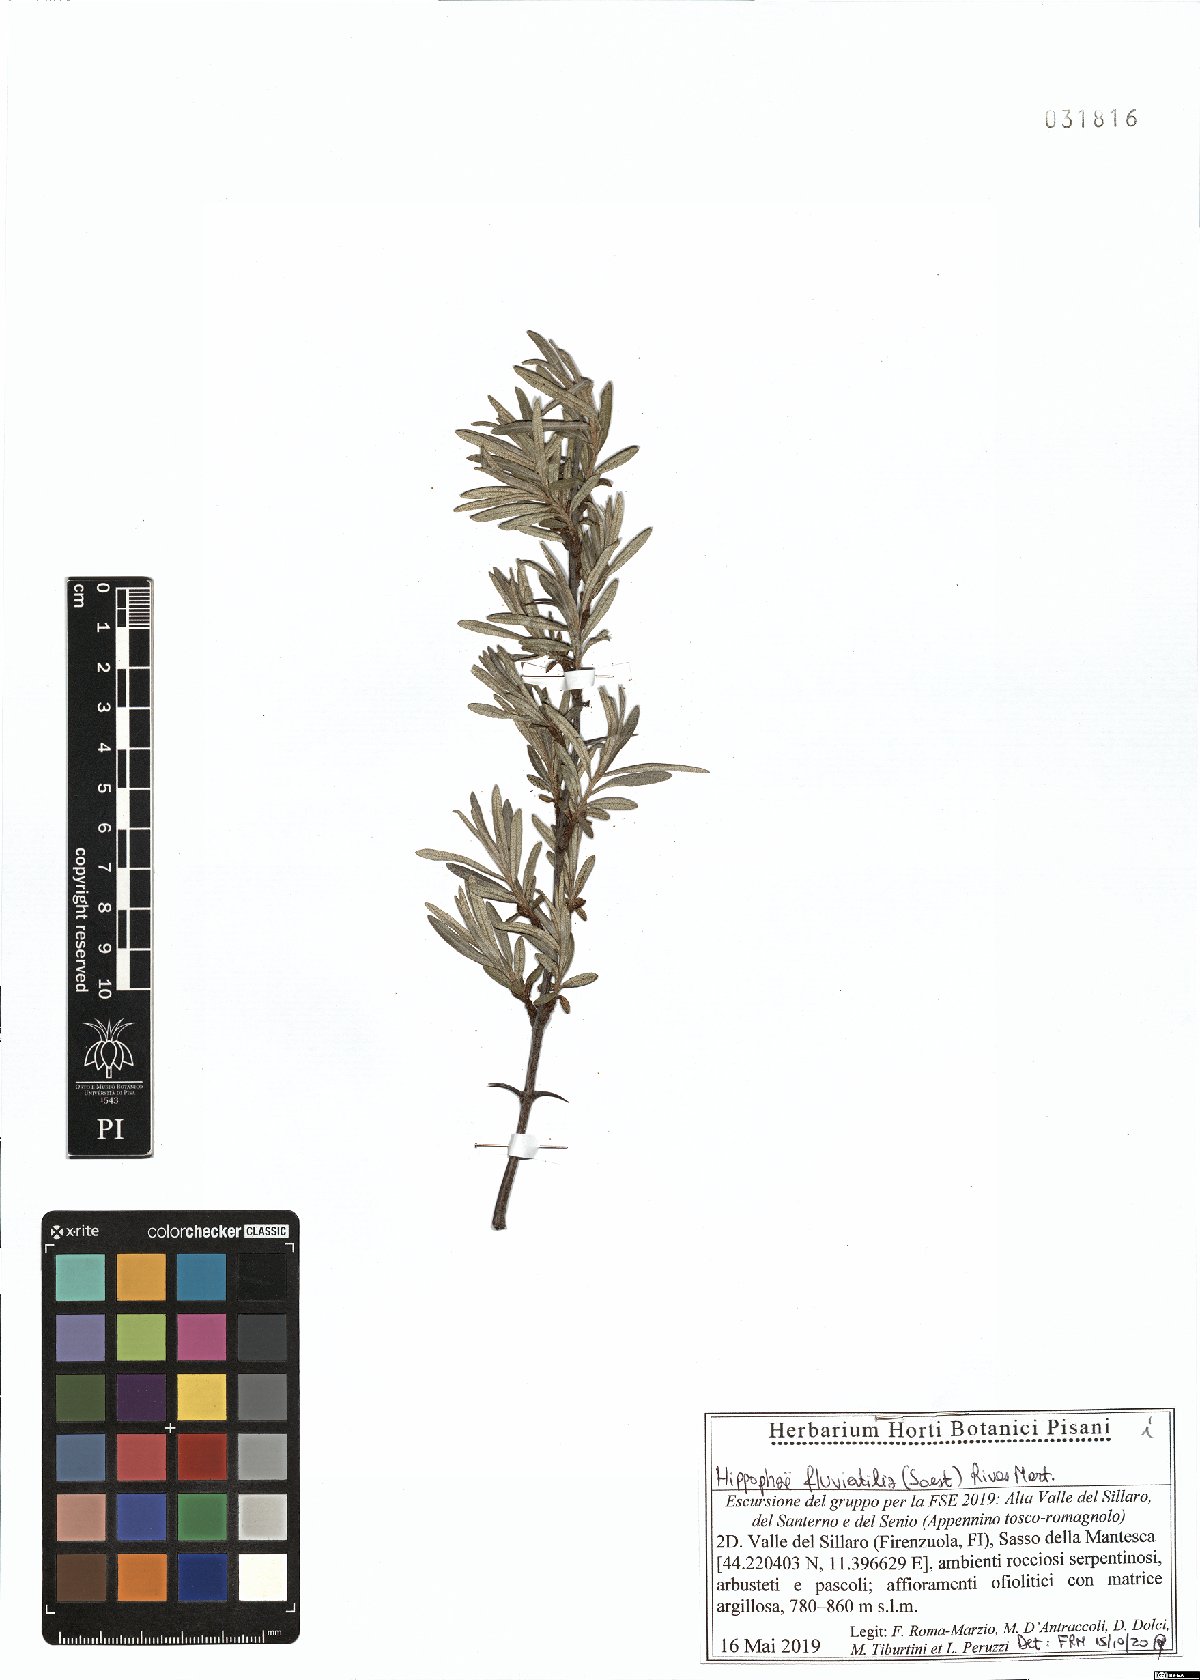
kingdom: Plantae
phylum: Tracheophyta
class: Magnoliopsida
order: Rosales
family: Elaeagnaceae
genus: Hippophae
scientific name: Hippophae rhamnoides
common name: Sea-buckthorn
